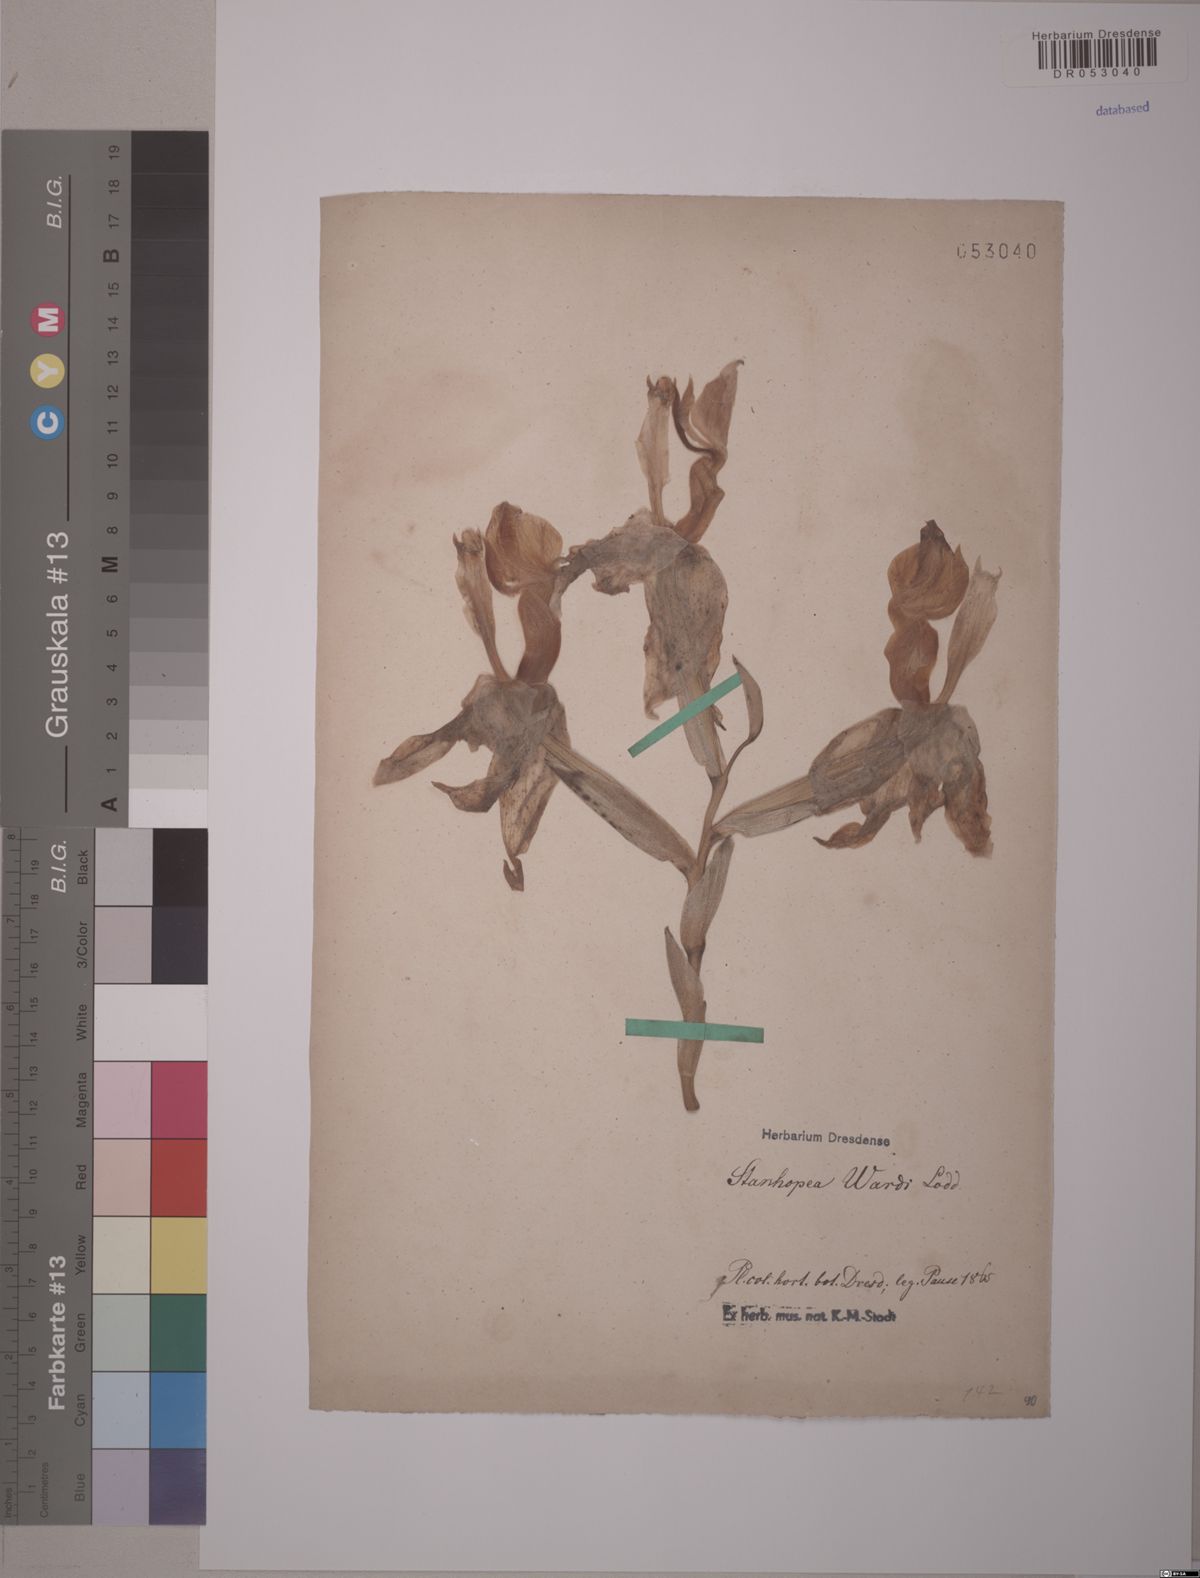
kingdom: Plantae
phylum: Tracheophyta
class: Liliopsida
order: Asparagales
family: Orchidaceae
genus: Stanhopea
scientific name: Stanhopea wardii
